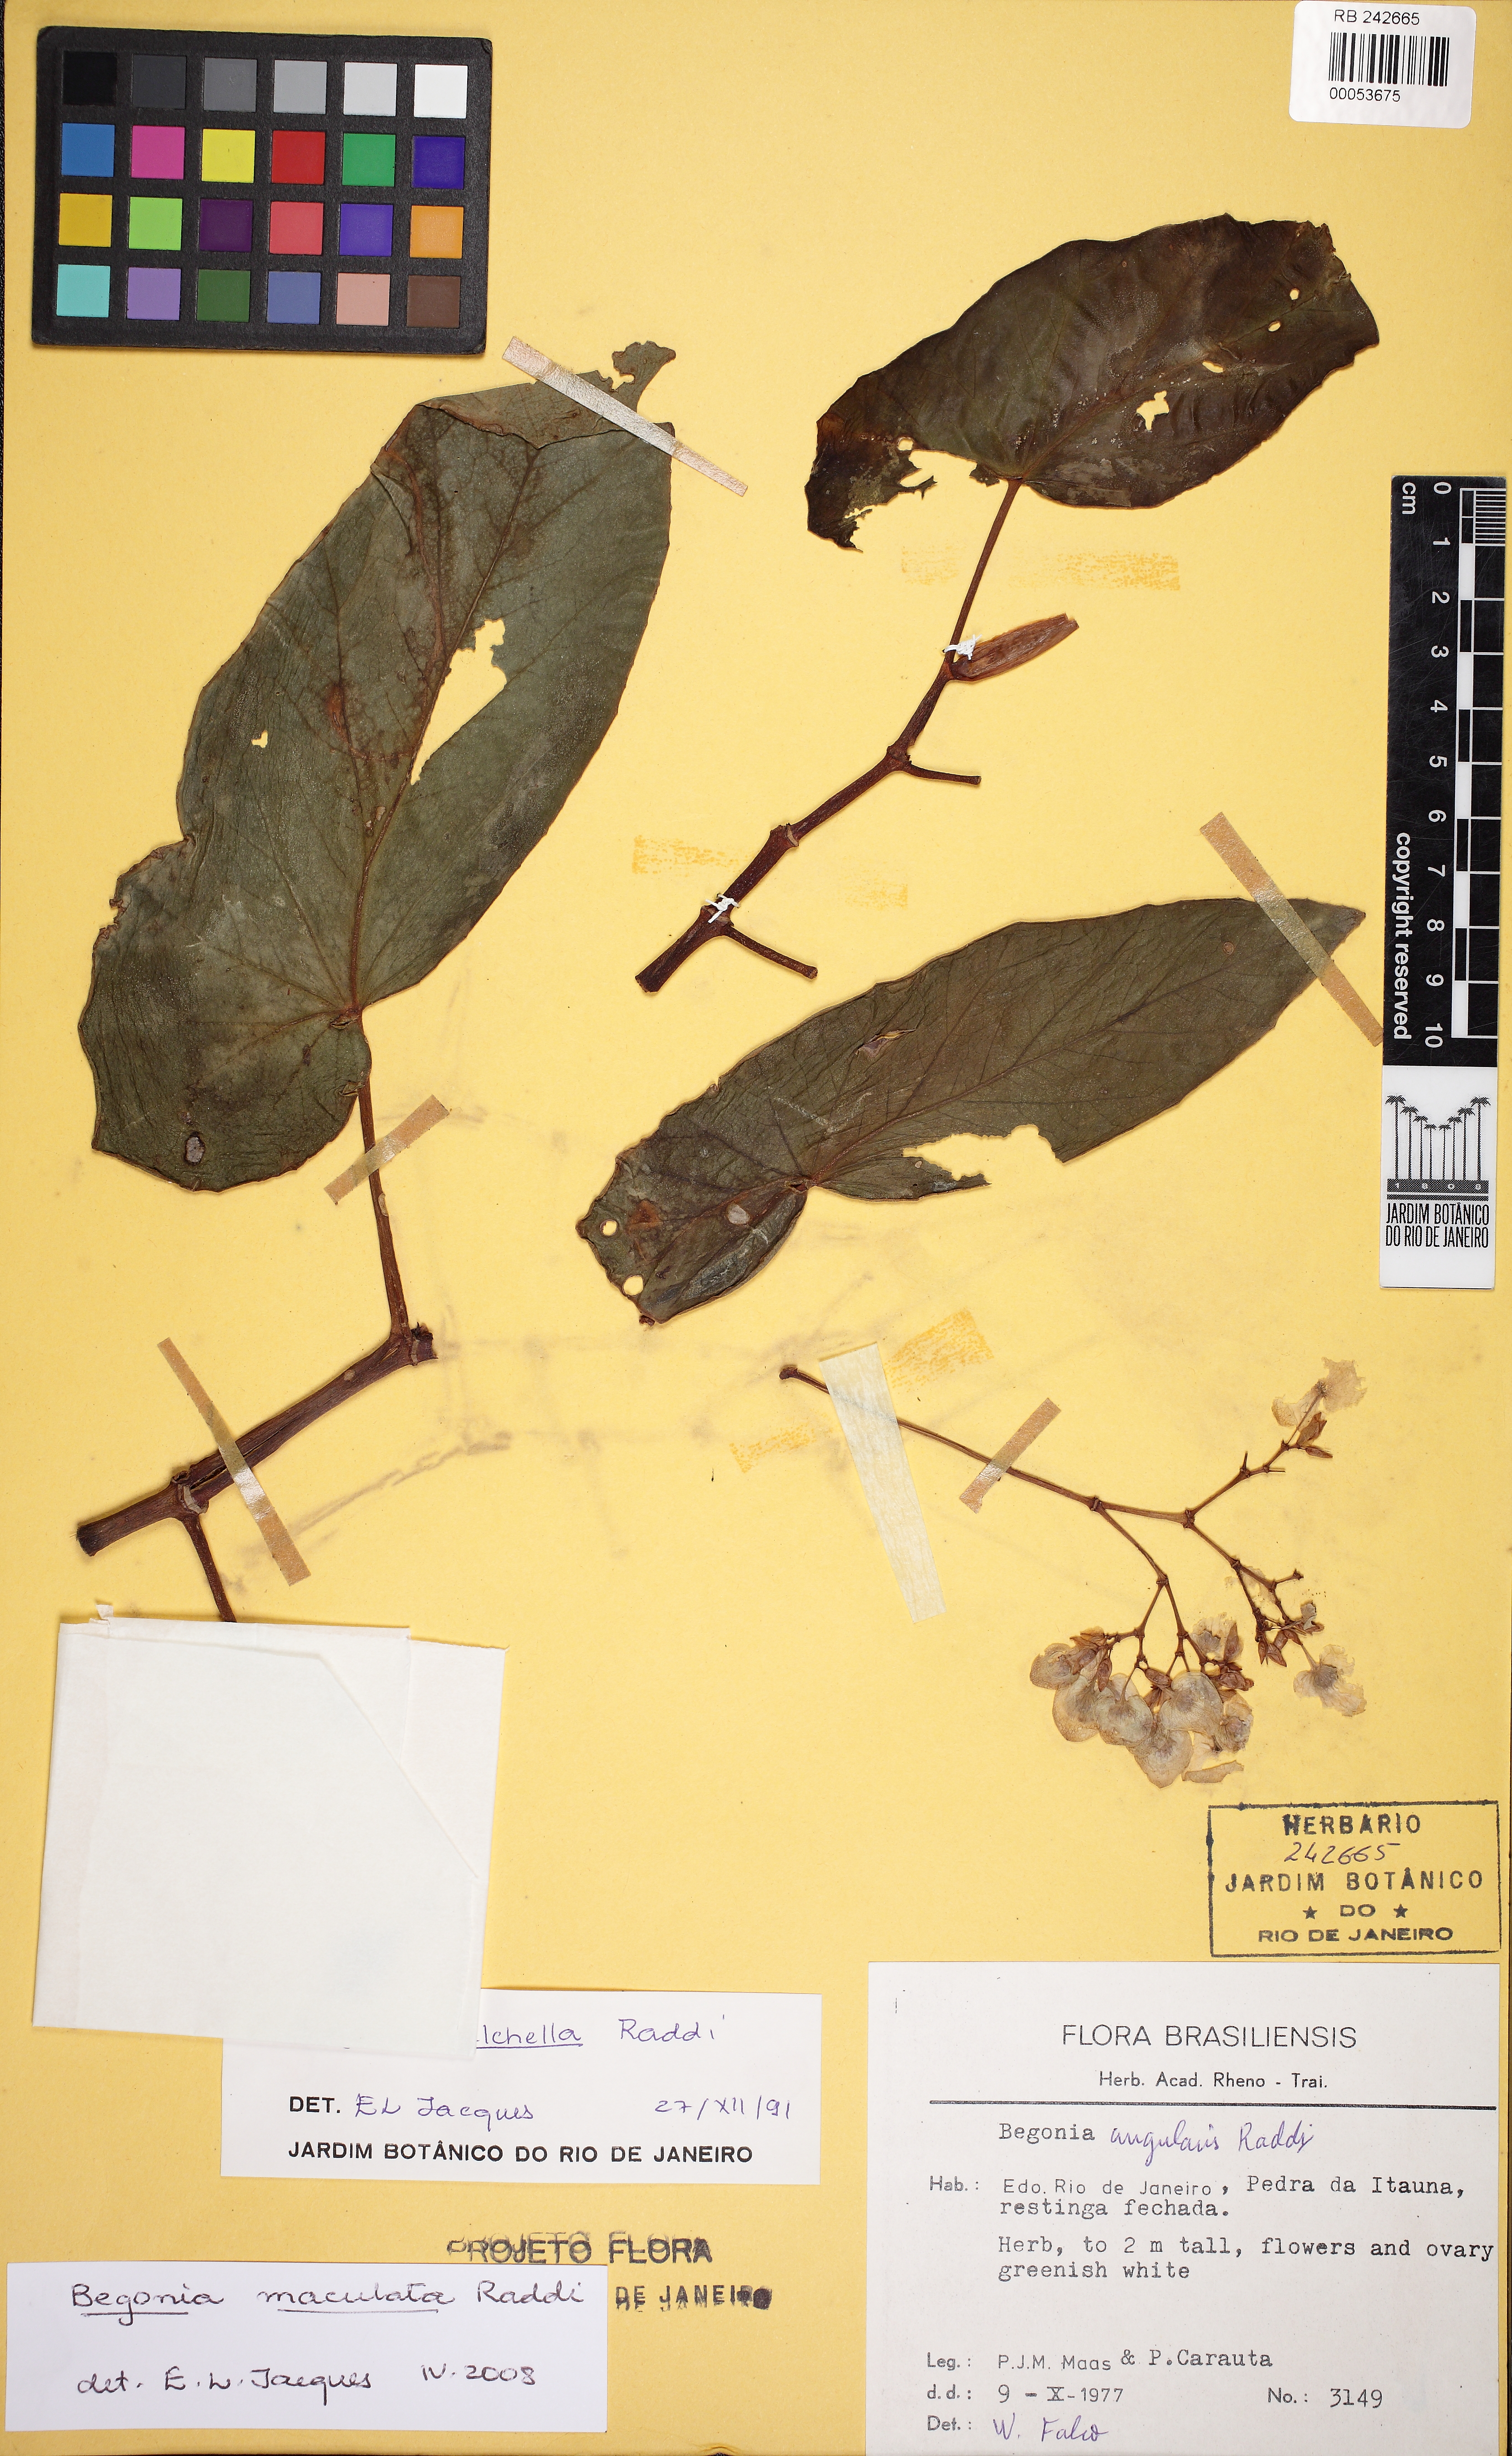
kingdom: Plantae
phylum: Tracheophyta
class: Magnoliopsida
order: Cucurbitales
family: Begoniaceae
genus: Begonia
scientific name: Begonia maculata
